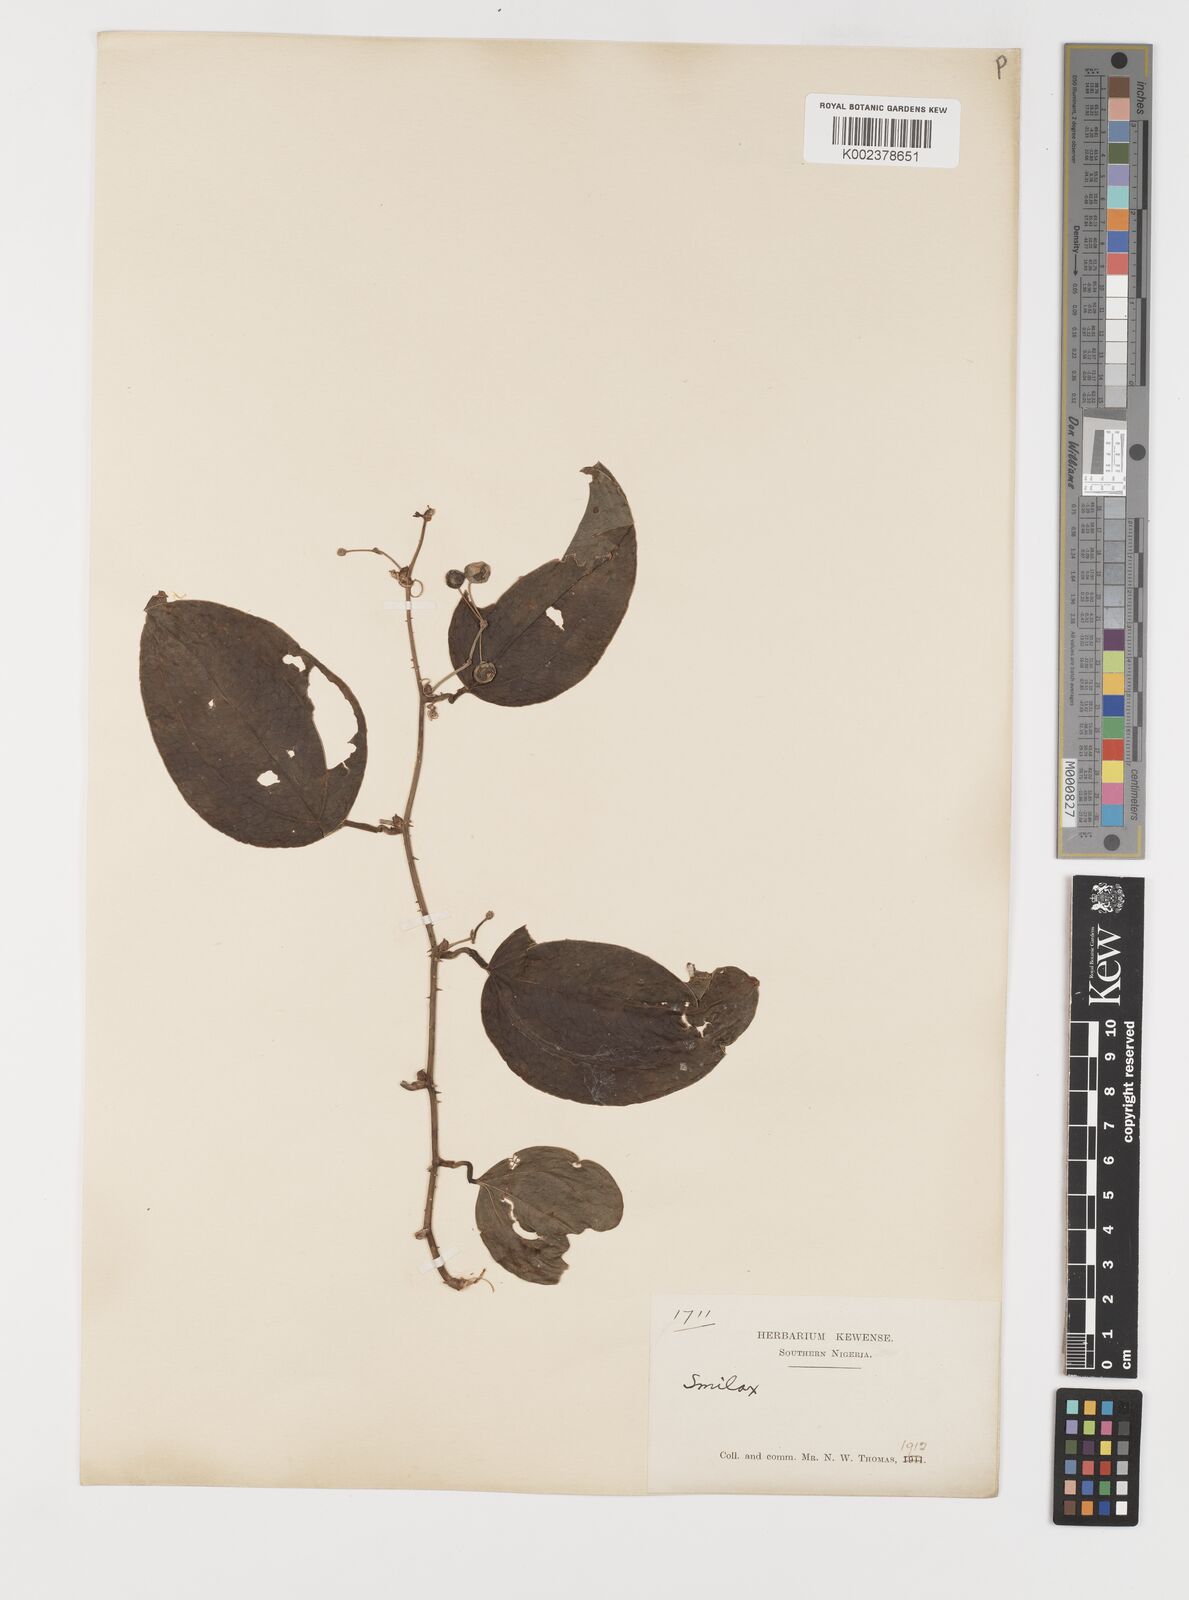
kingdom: Plantae
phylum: Tracheophyta
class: Liliopsida
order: Liliales
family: Smilacaceae
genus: Smilax
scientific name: Smilax anceps
